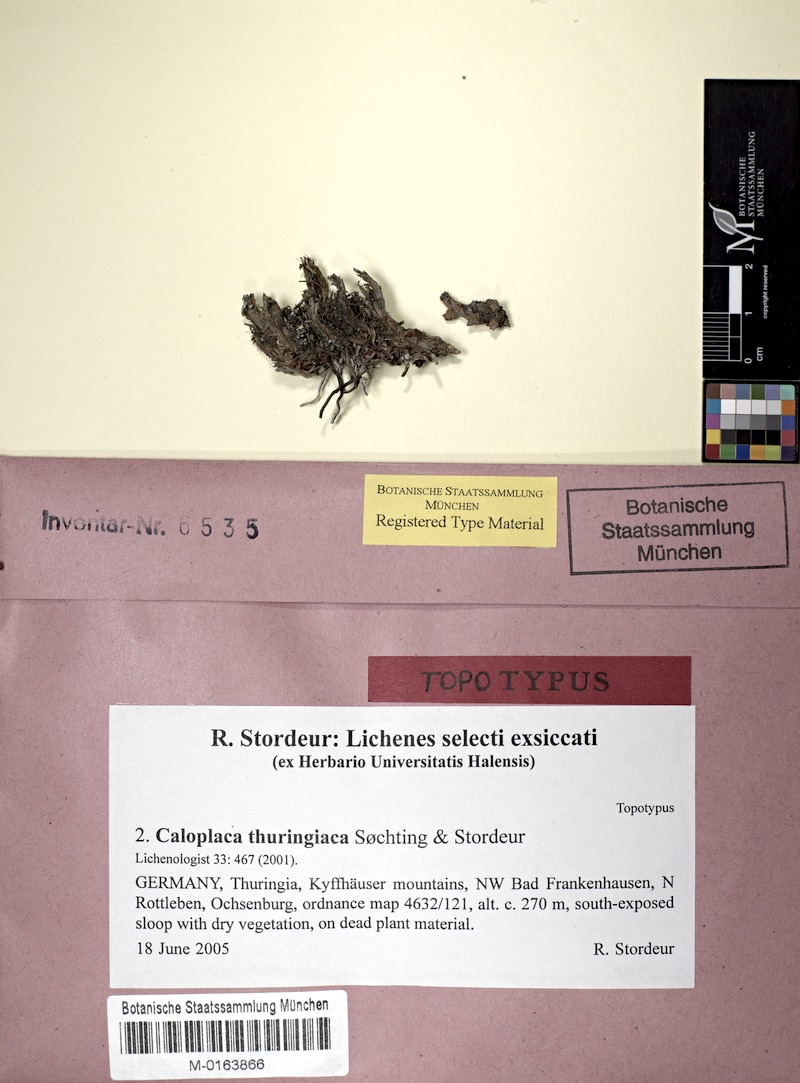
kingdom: Fungi
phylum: Ascomycota
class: Lecanoromycetes
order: Teloschistales
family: Teloschistaceae
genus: Caloplaca
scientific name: Caloplaca raesaenenii
